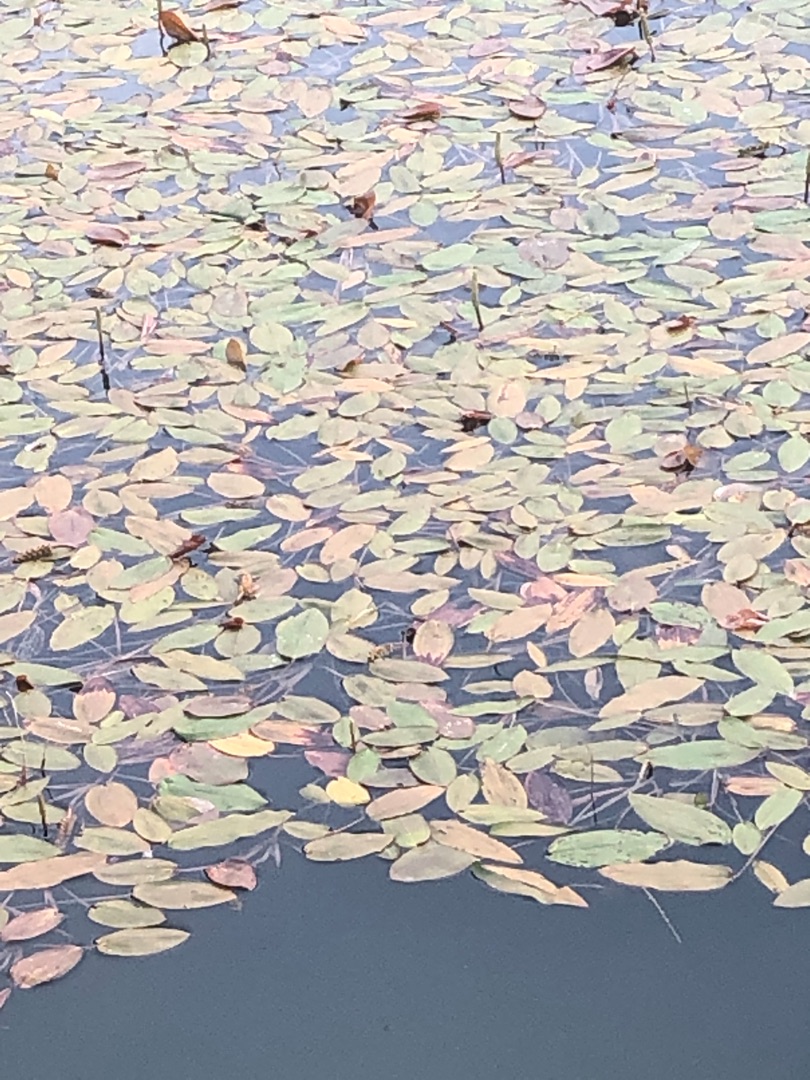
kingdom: Plantae
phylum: Tracheophyta
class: Liliopsida
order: Alismatales
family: Potamogetonaceae
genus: Potamogeton
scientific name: Potamogeton natans
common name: Svømmende vandaks
